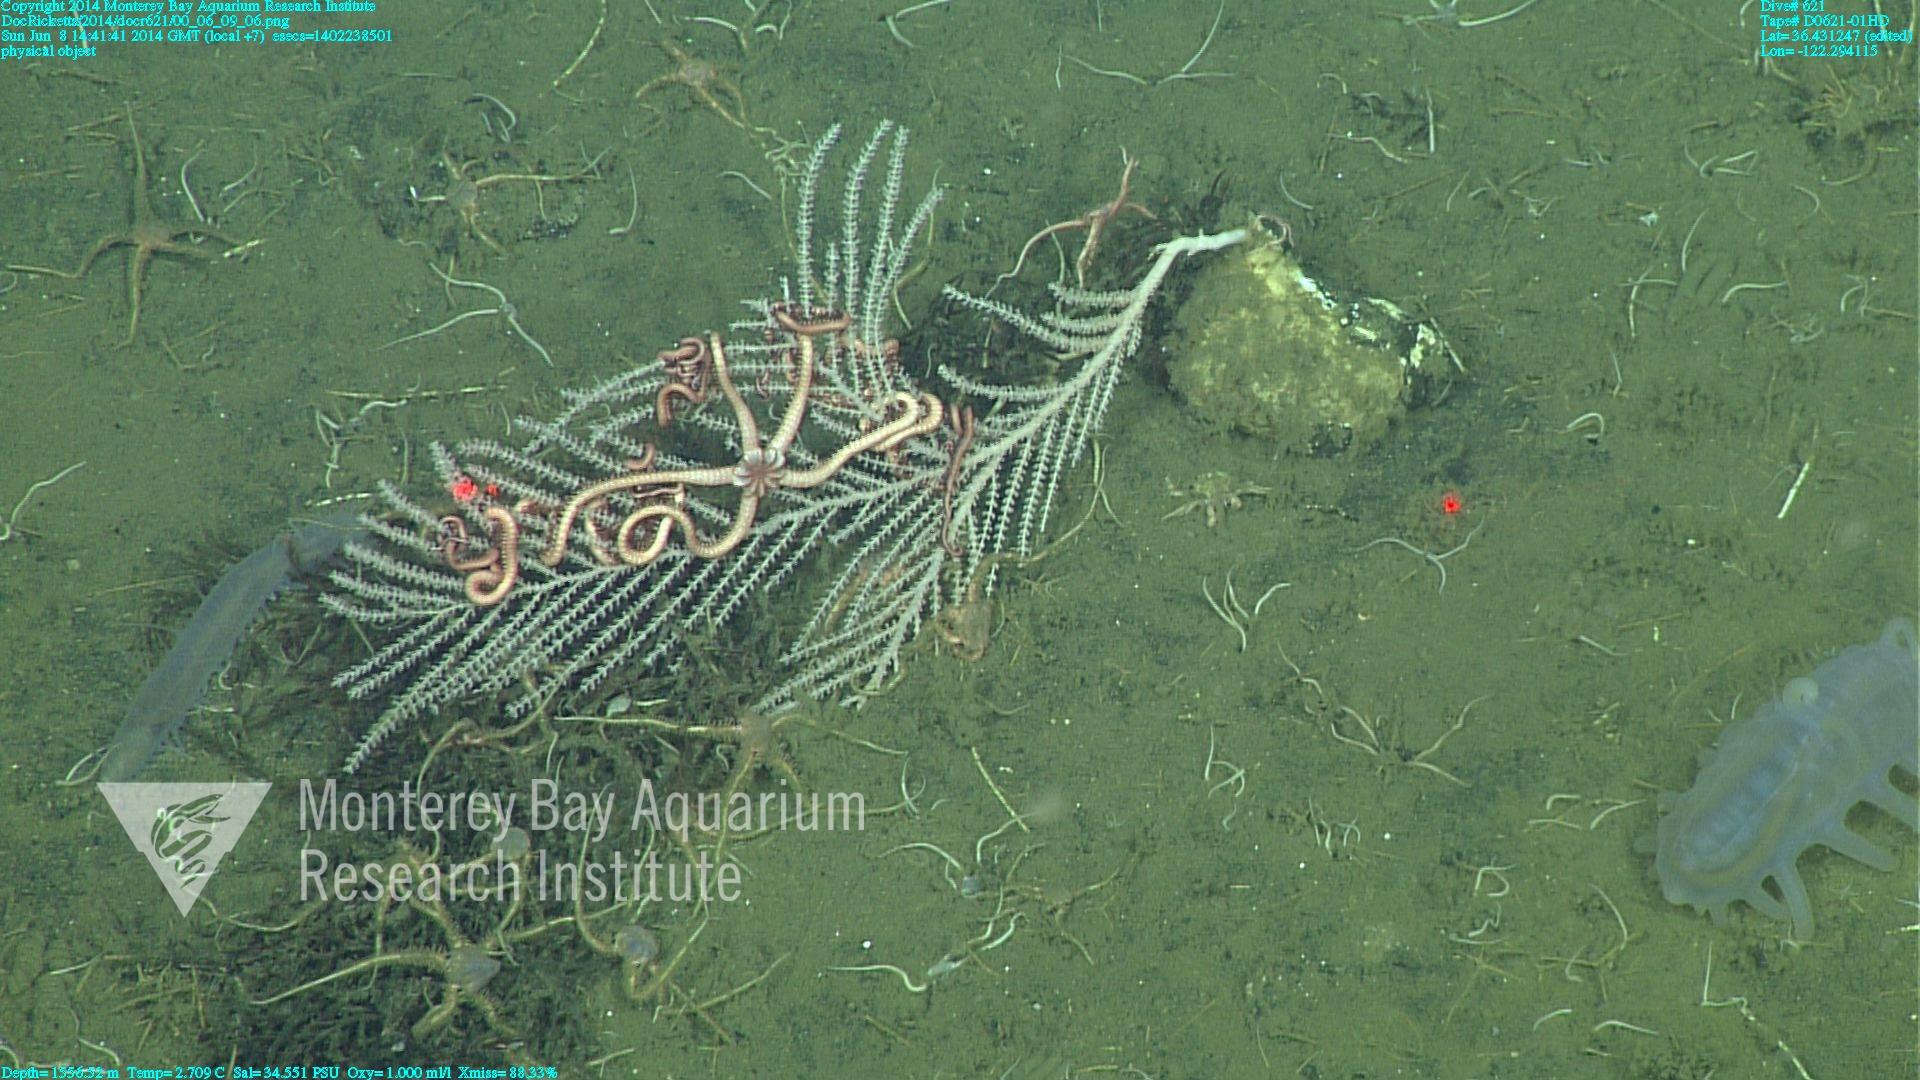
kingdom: Animalia
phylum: Cnidaria
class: Anthozoa
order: Scleralcyonacea
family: Primnoidae
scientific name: Primnoidae
